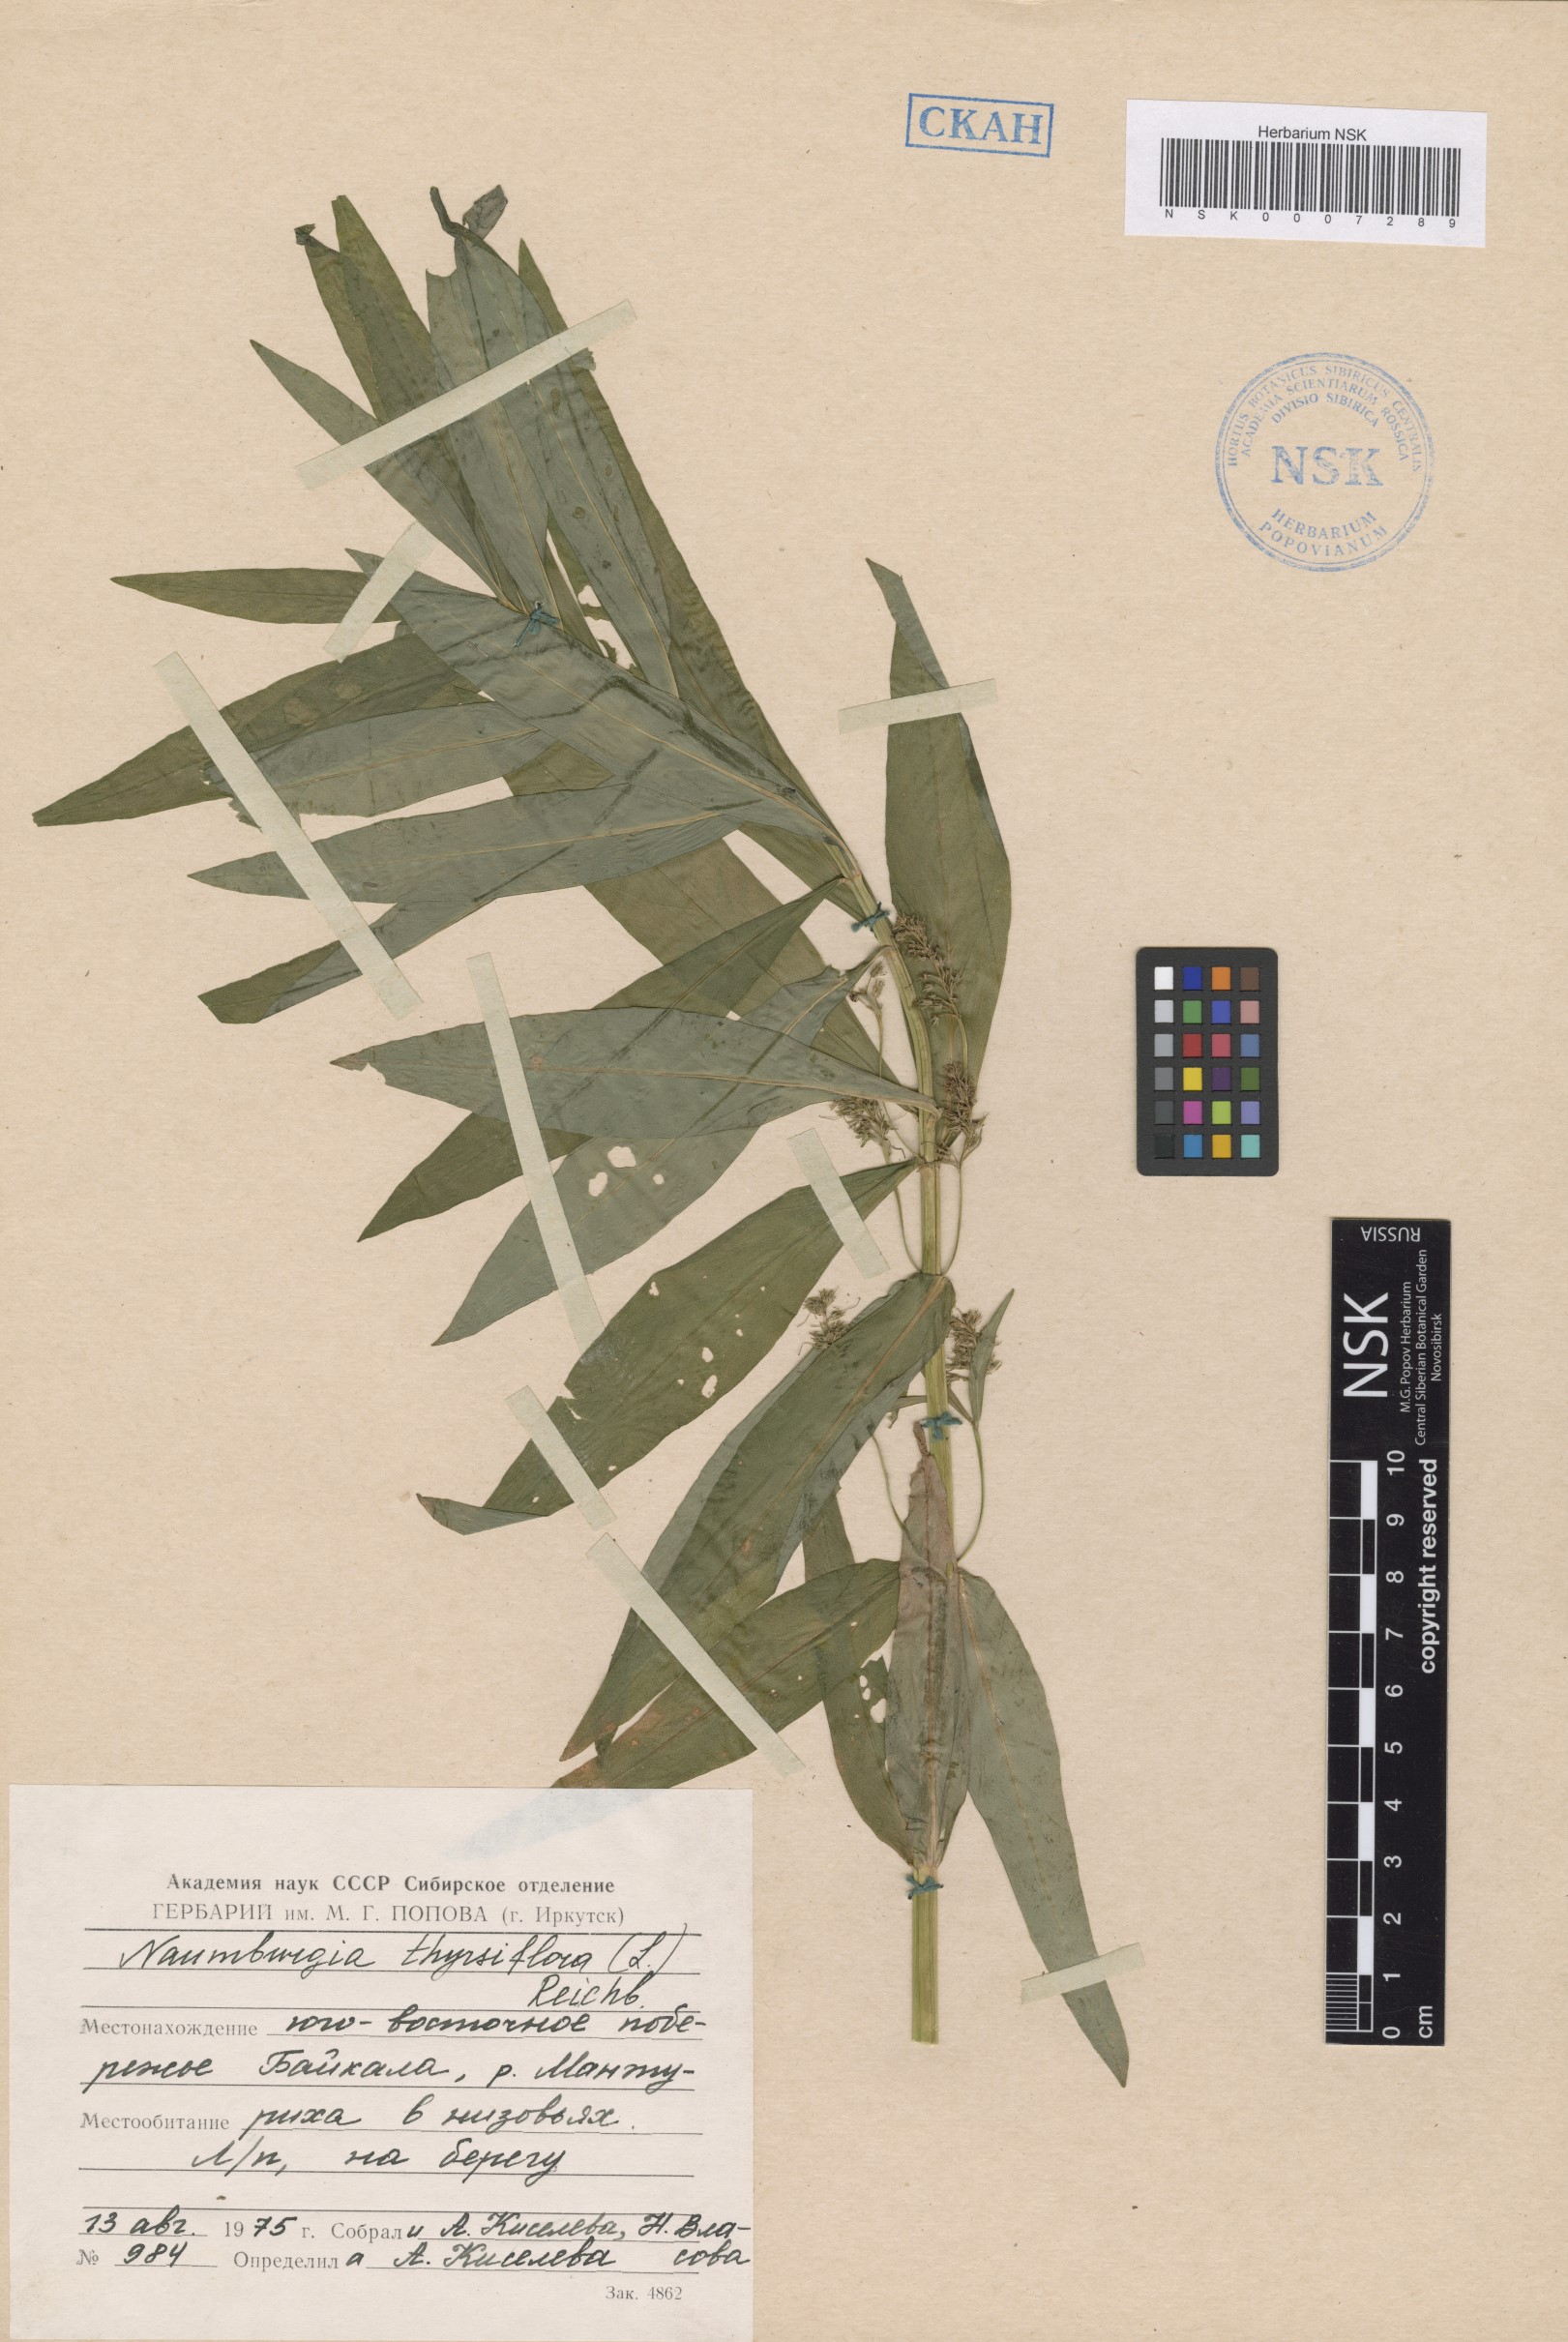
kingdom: Plantae
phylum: Tracheophyta
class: Magnoliopsida
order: Ericales
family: Primulaceae
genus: Lysimachia
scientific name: Lysimachia thyrsiflora
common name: Tufted loosestrife
